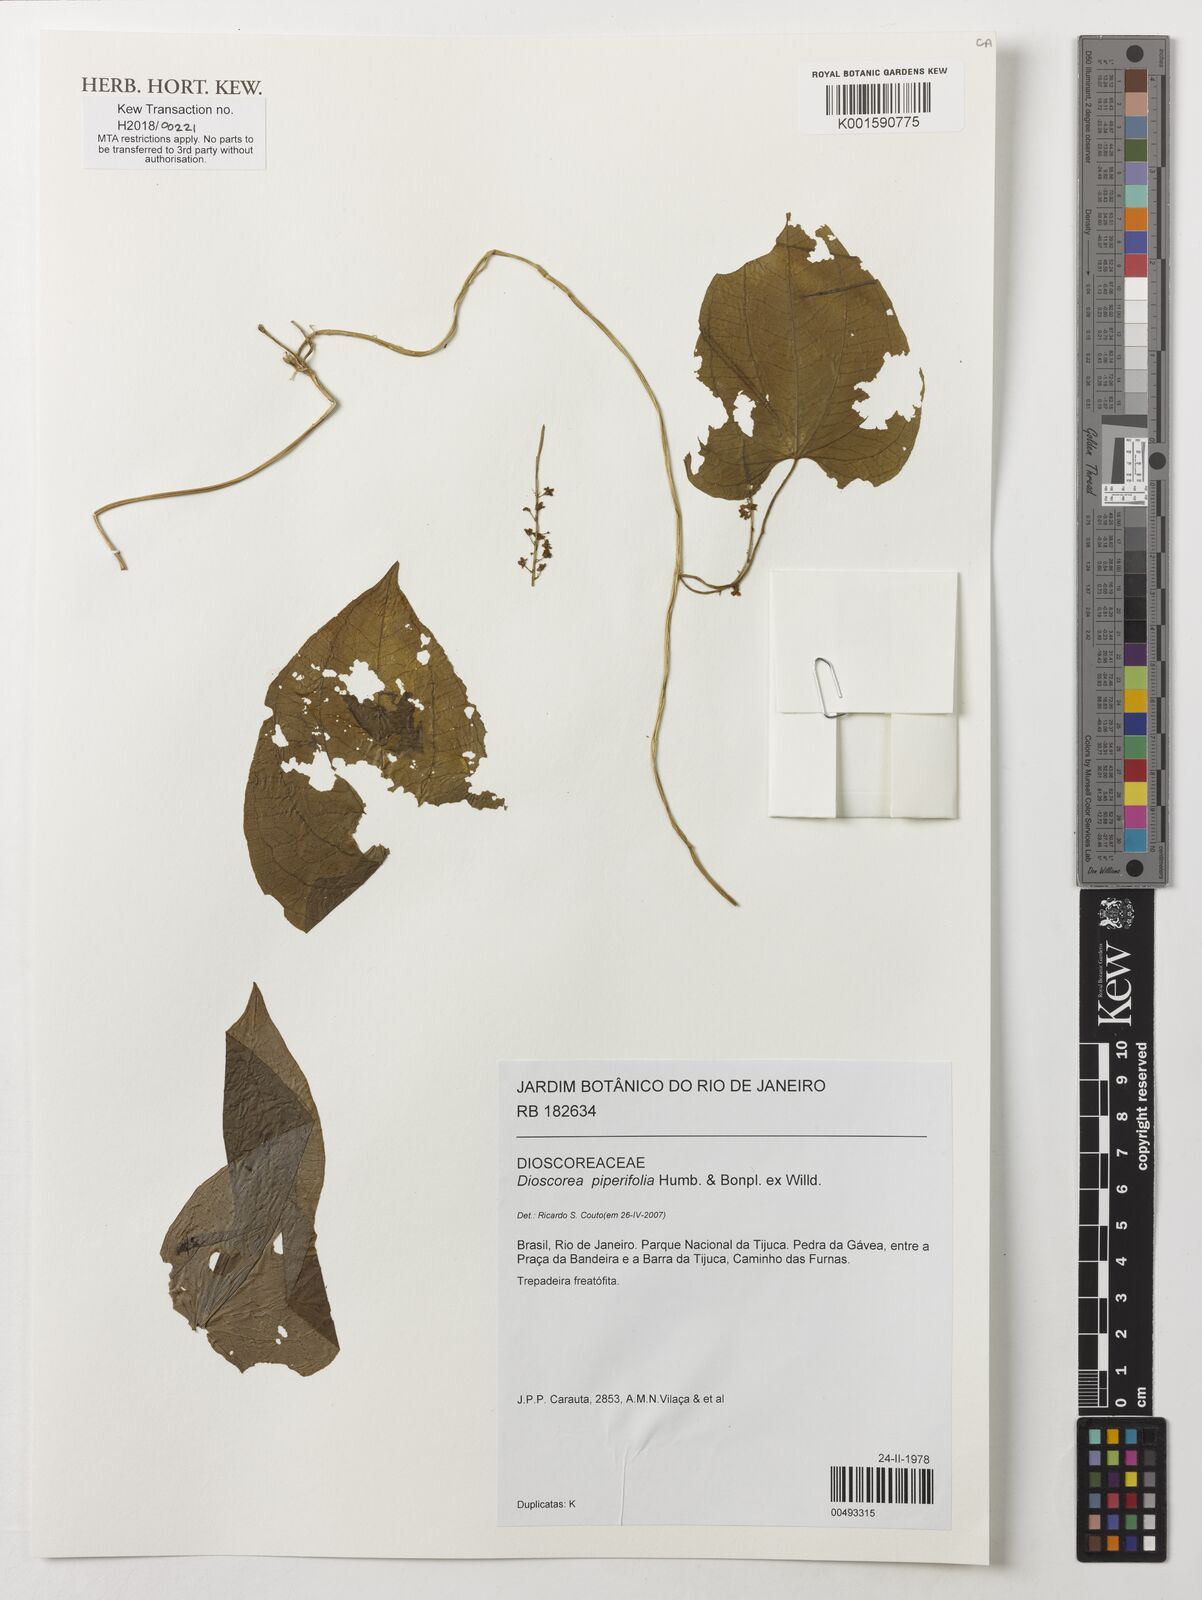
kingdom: Plantae
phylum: Tracheophyta
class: Liliopsida
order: Dioscoreales
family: Dioscoreaceae
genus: Dioscorea
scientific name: Dioscorea piperifolia
